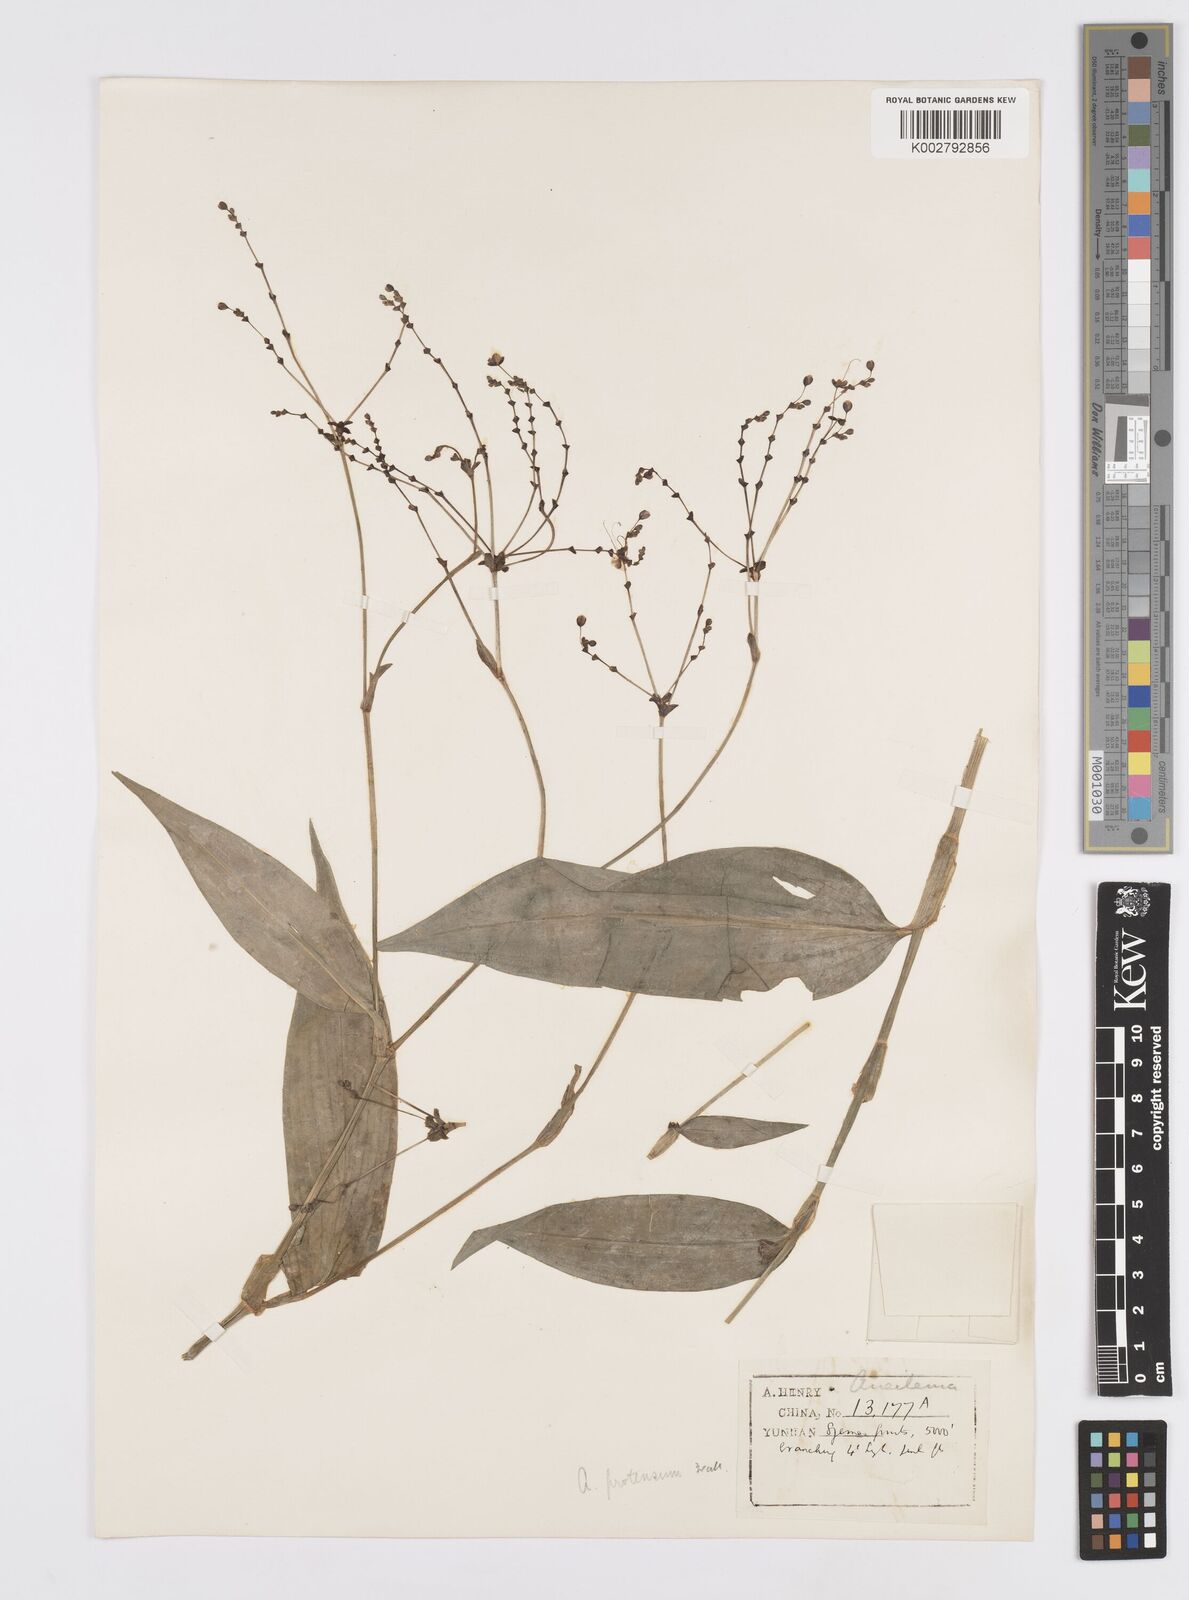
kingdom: Plantae
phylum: Tracheophyta
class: Liliopsida
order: Commelinales
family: Commelinaceae
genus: Murdannia
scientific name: Murdannia
